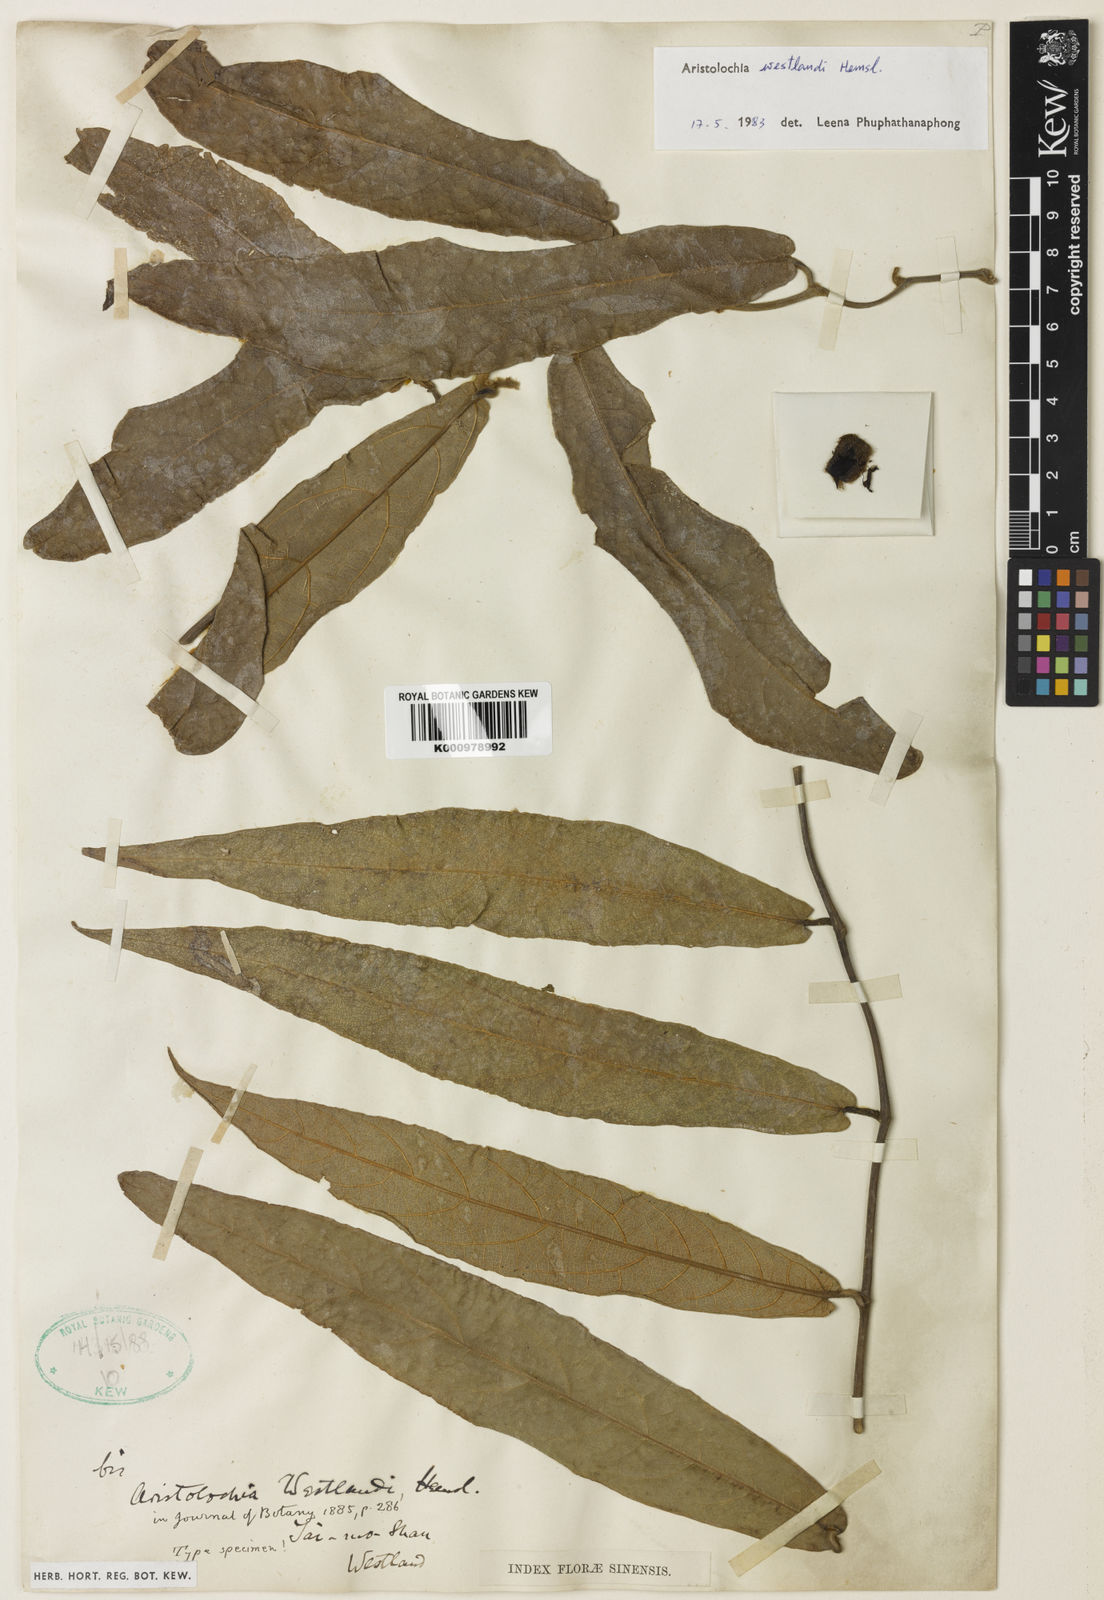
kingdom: Plantae
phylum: Tracheophyta
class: Magnoliopsida
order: Piperales
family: Aristolochiaceae
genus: Isotrema
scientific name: Isotrema westlandii
